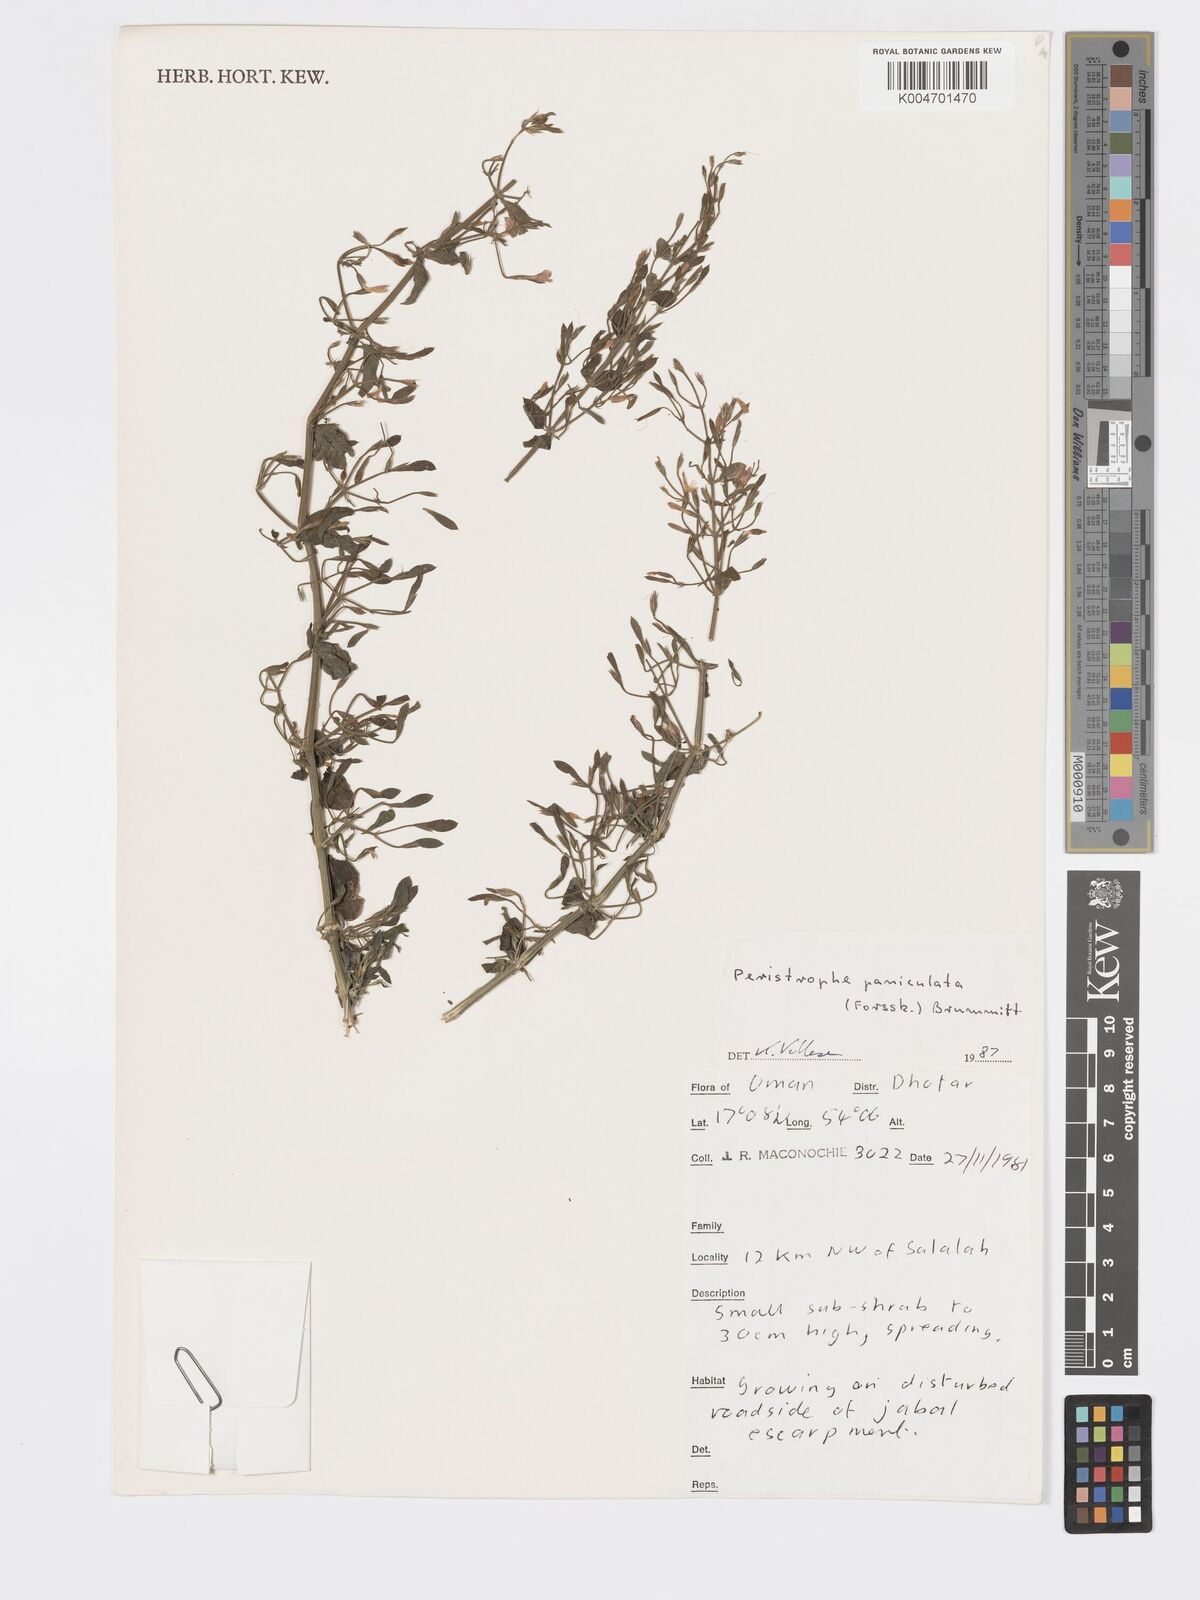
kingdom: Plantae
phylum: Tracheophyta
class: Magnoliopsida
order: Lamiales
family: Acanthaceae
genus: Dicliptera
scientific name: Dicliptera paniculata
